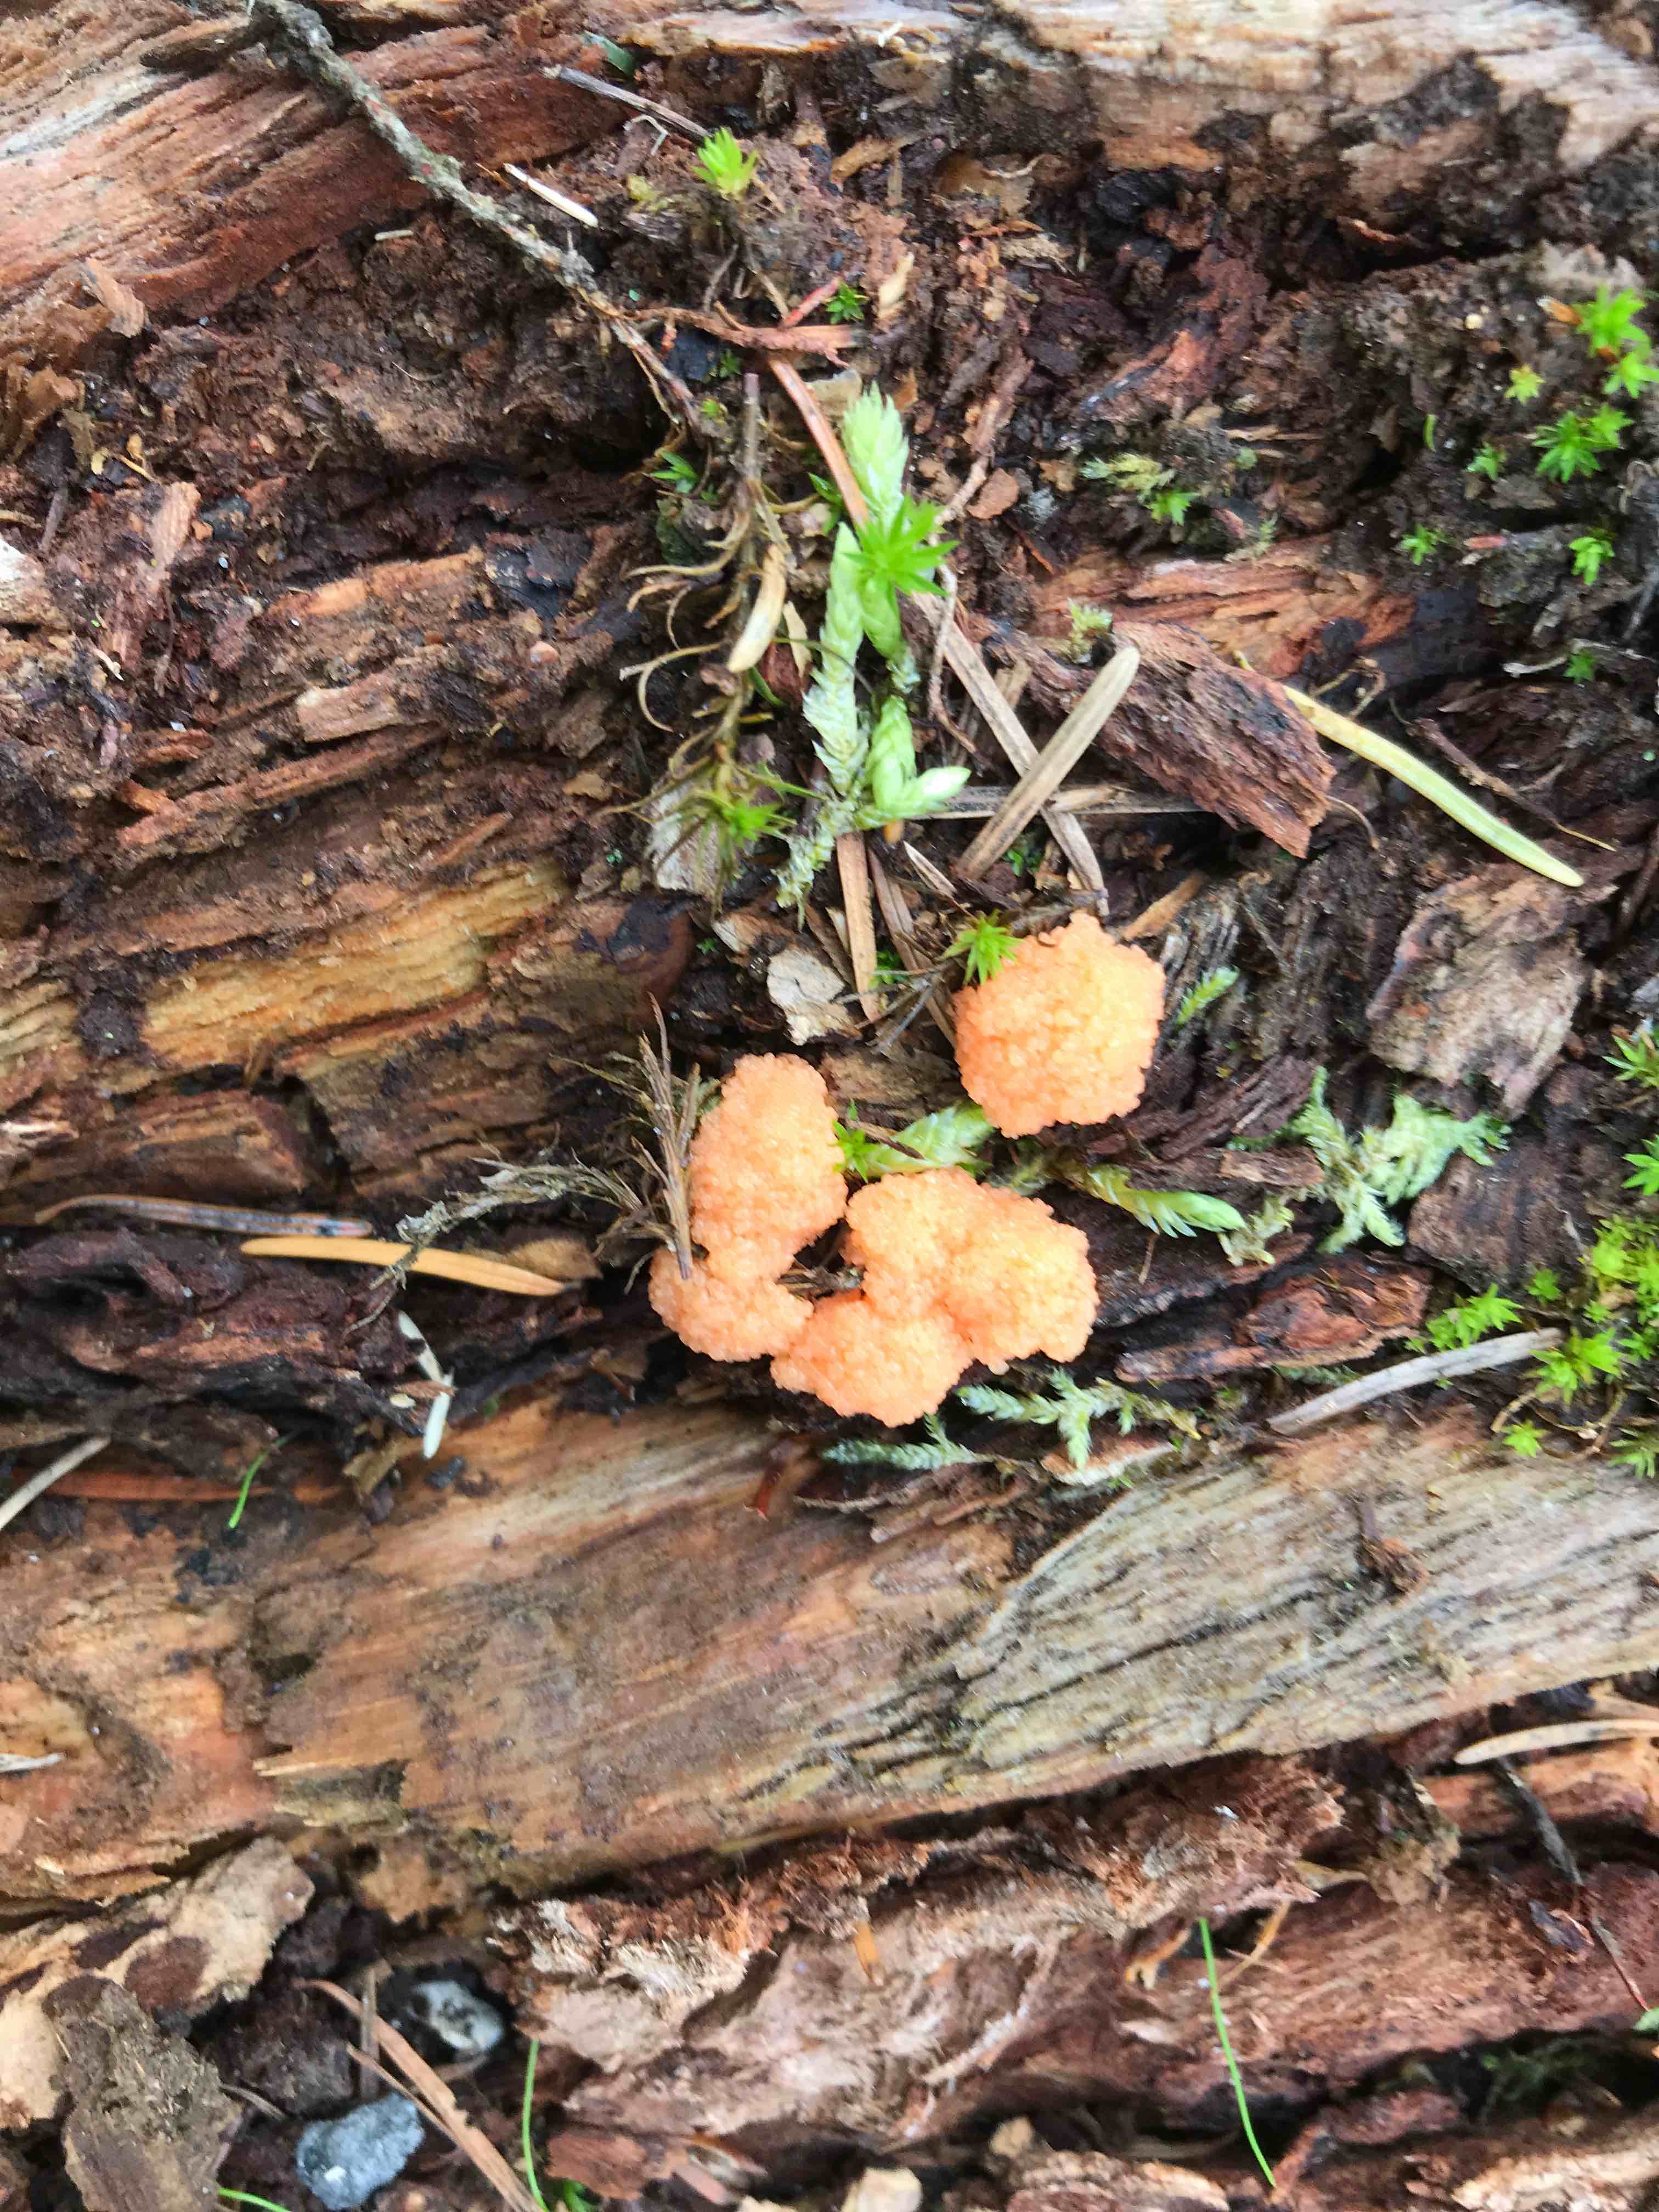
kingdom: Protozoa
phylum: Mycetozoa
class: Myxomycetes
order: Cribrariales
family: Tubiferaceae
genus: Tubifera
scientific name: Tubifera ferruginosa
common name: kanel-støvrør
